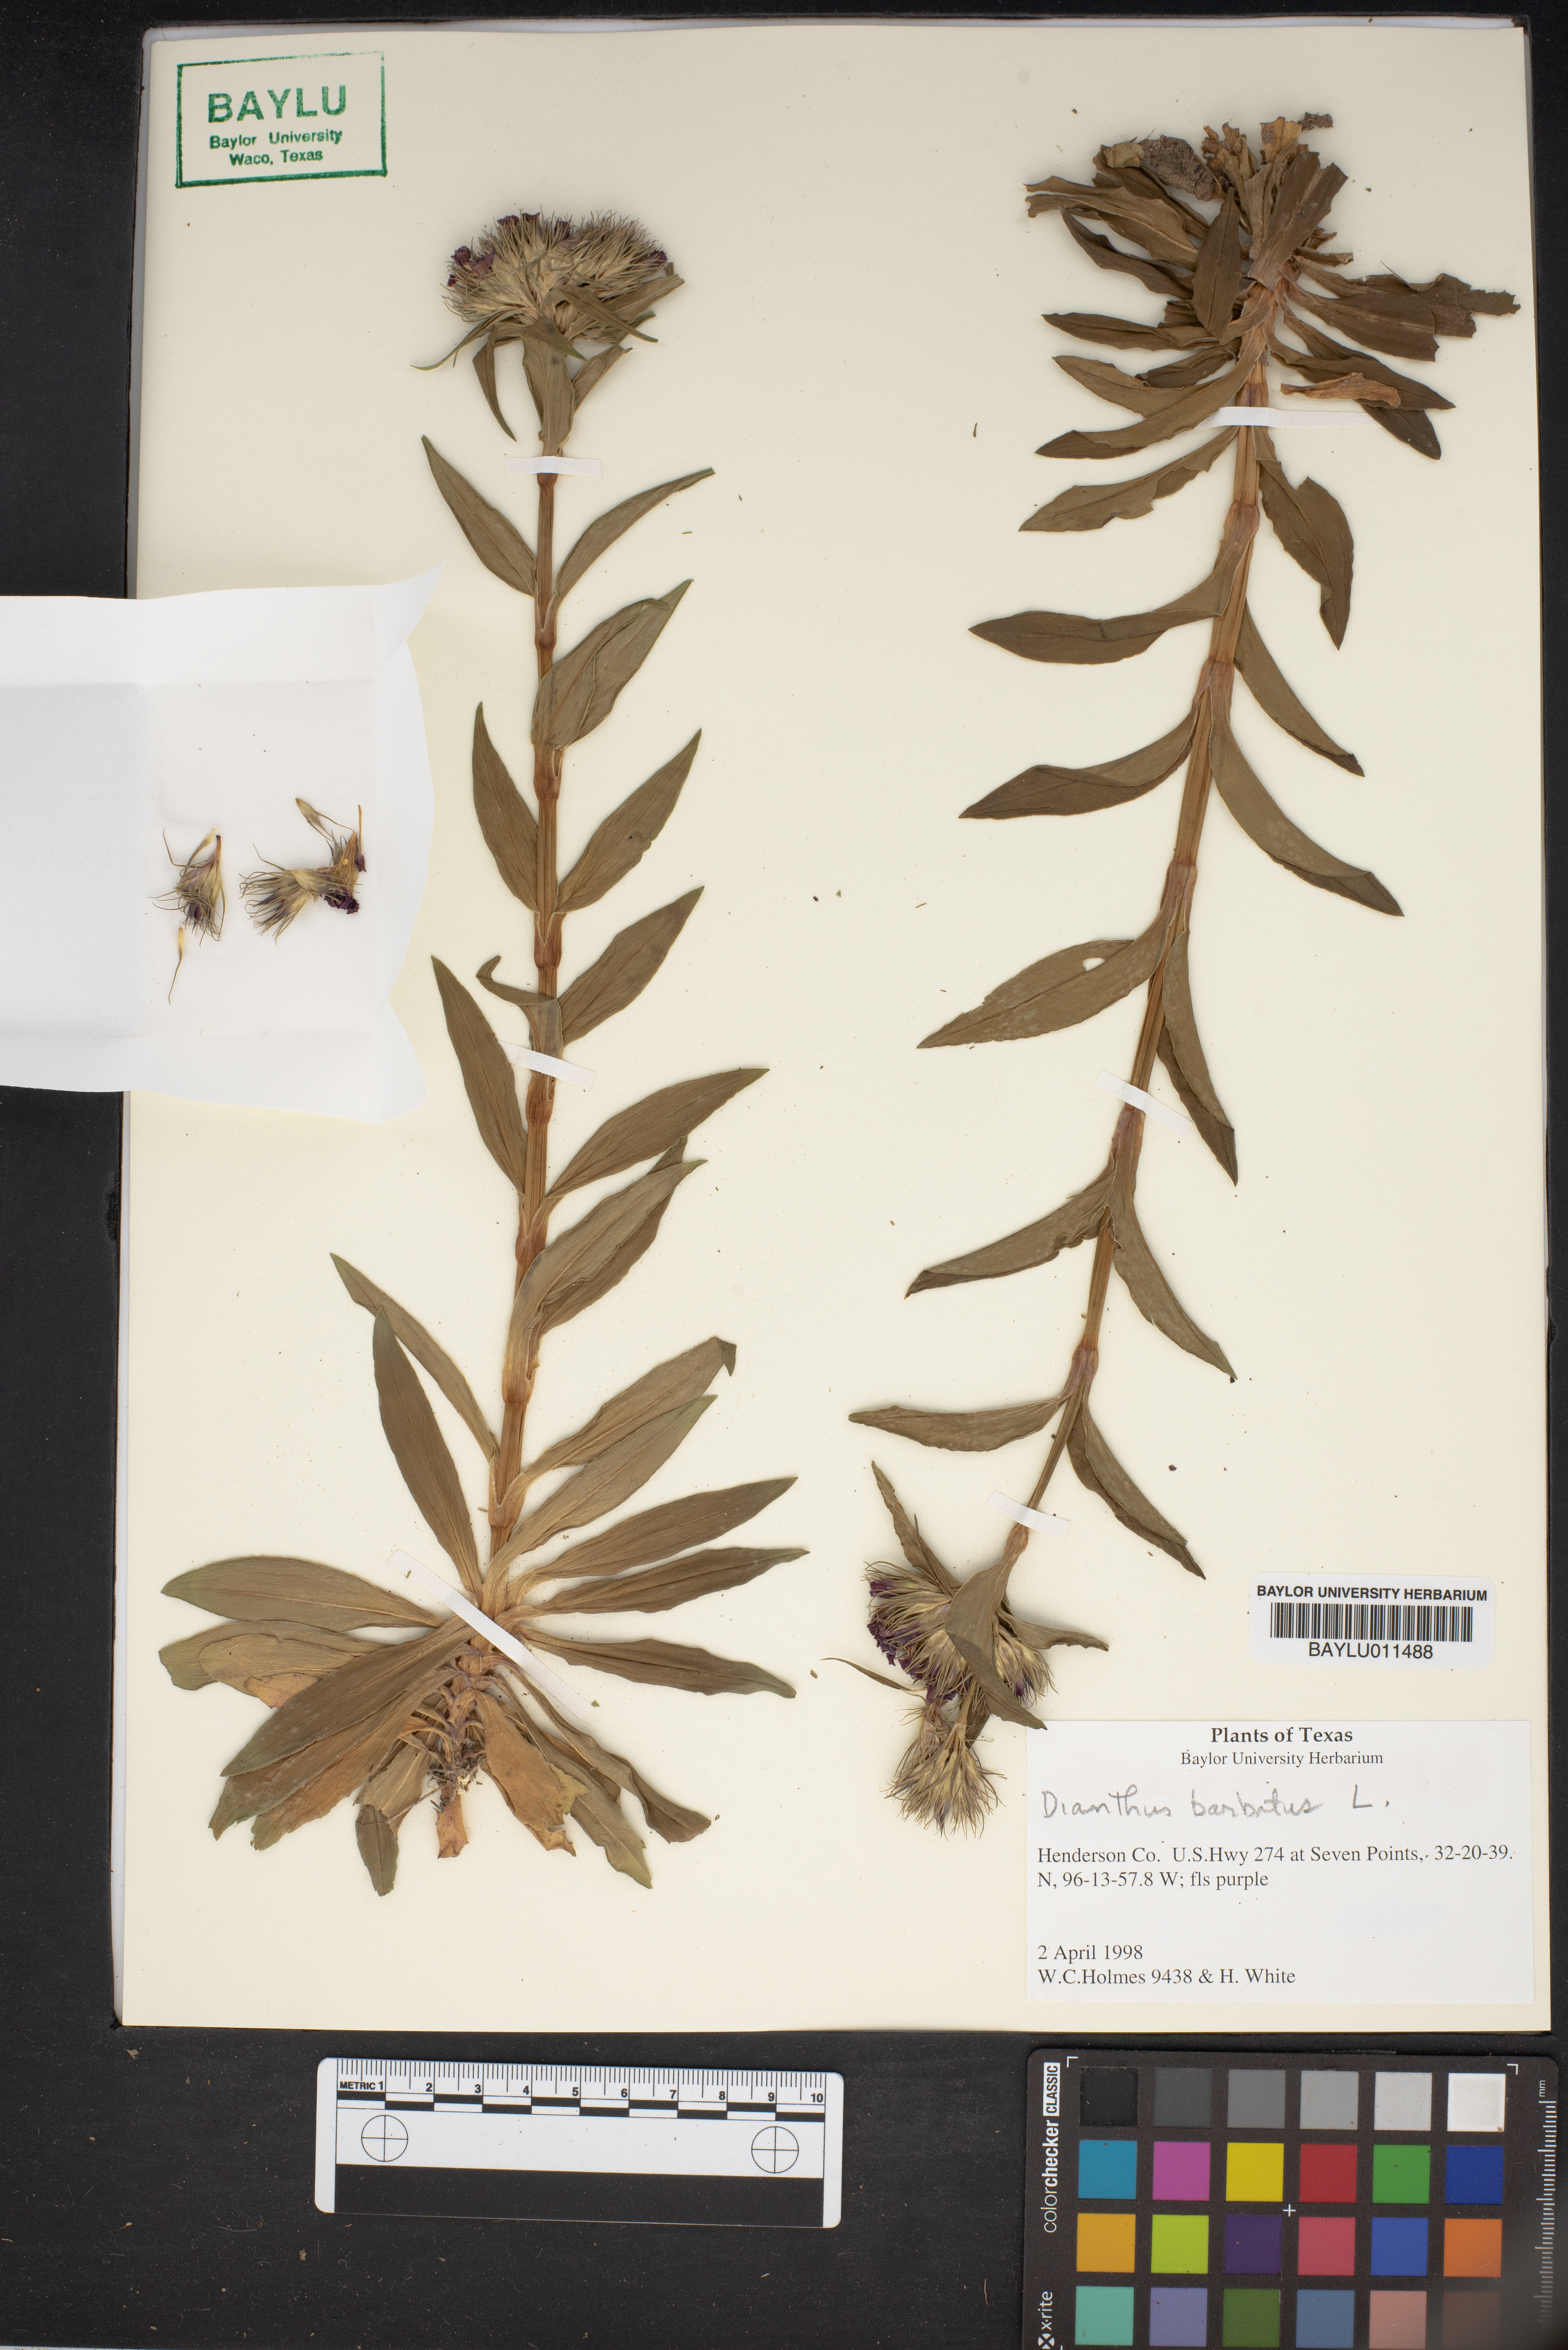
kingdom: Plantae
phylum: Tracheophyta
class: Magnoliopsida
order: Caryophyllales
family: Caryophyllaceae
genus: Dianthus
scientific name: Dianthus barbatus
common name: Sweet-william
